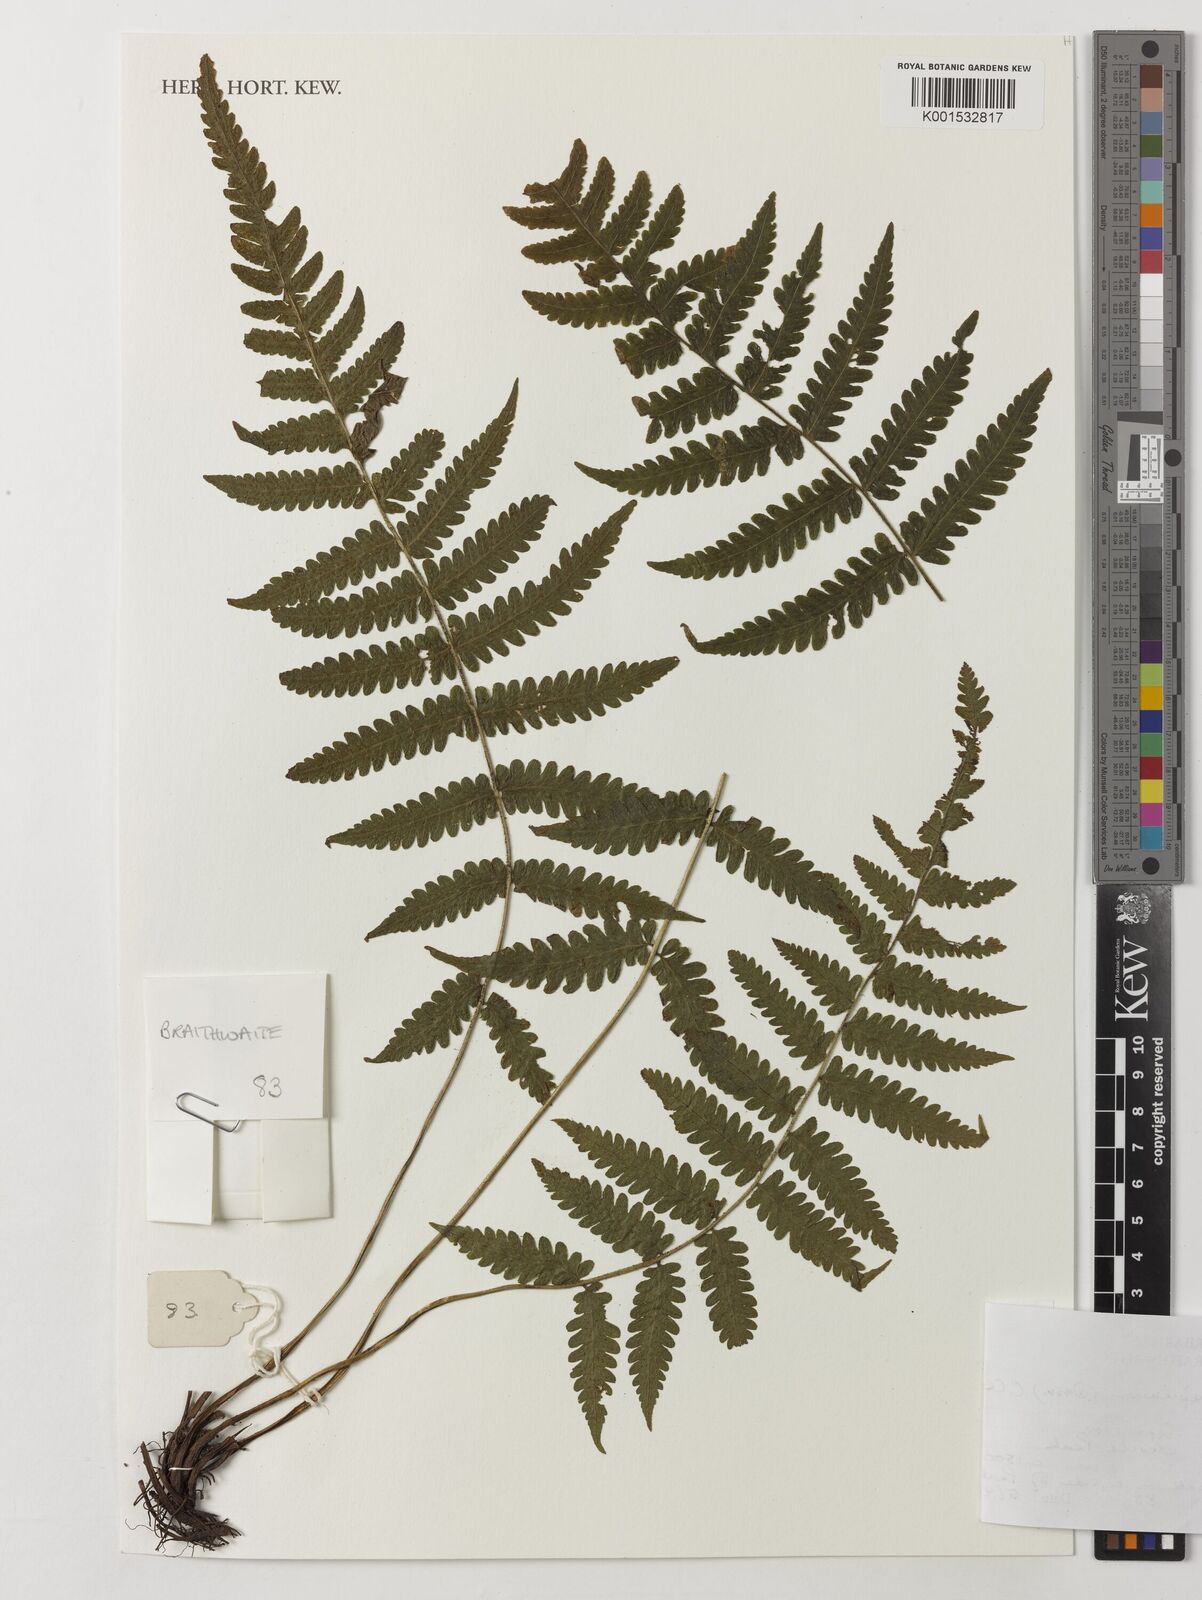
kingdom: Plantae
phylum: Tracheophyta
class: Polypodiopsida
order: Polypodiales
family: Thelypteridaceae
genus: Leptogramma
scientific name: Leptogramma totta
